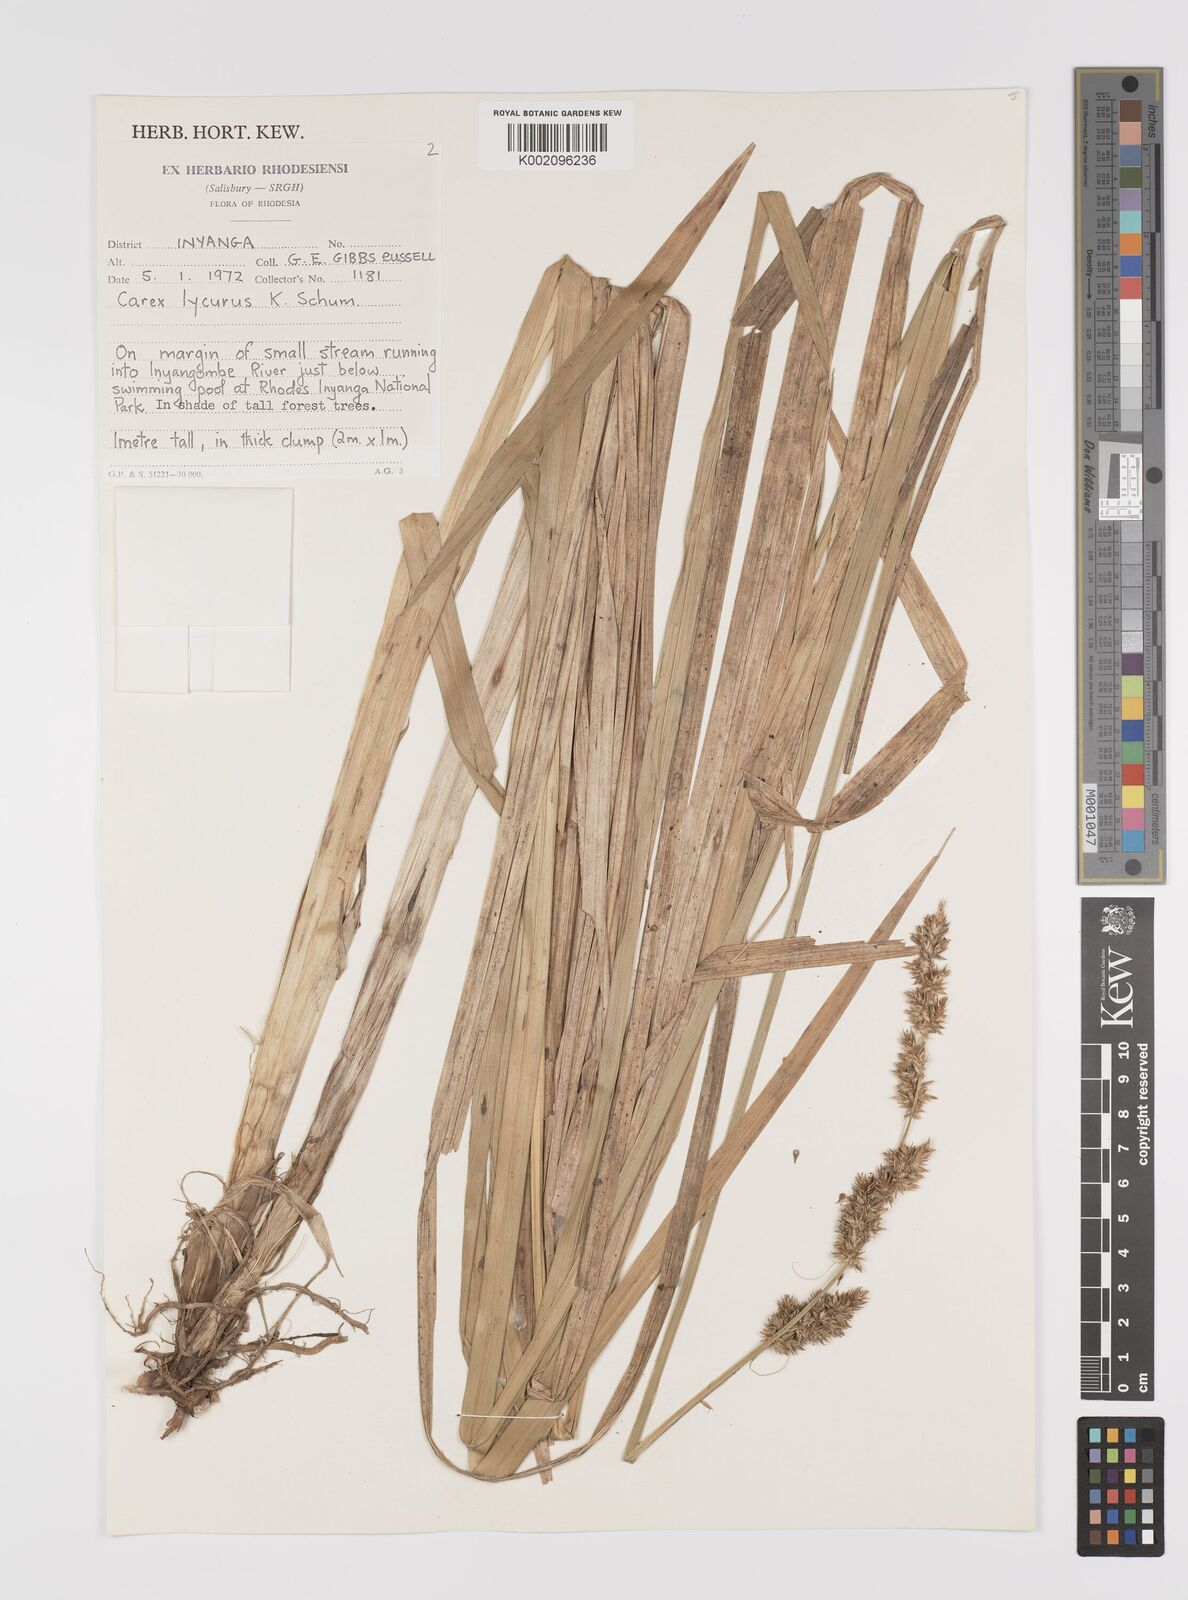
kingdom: Plantae
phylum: Tracheophyta
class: Liliopsida
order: Poales
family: Cyperaceae
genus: Carex
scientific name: Carex lycurus
